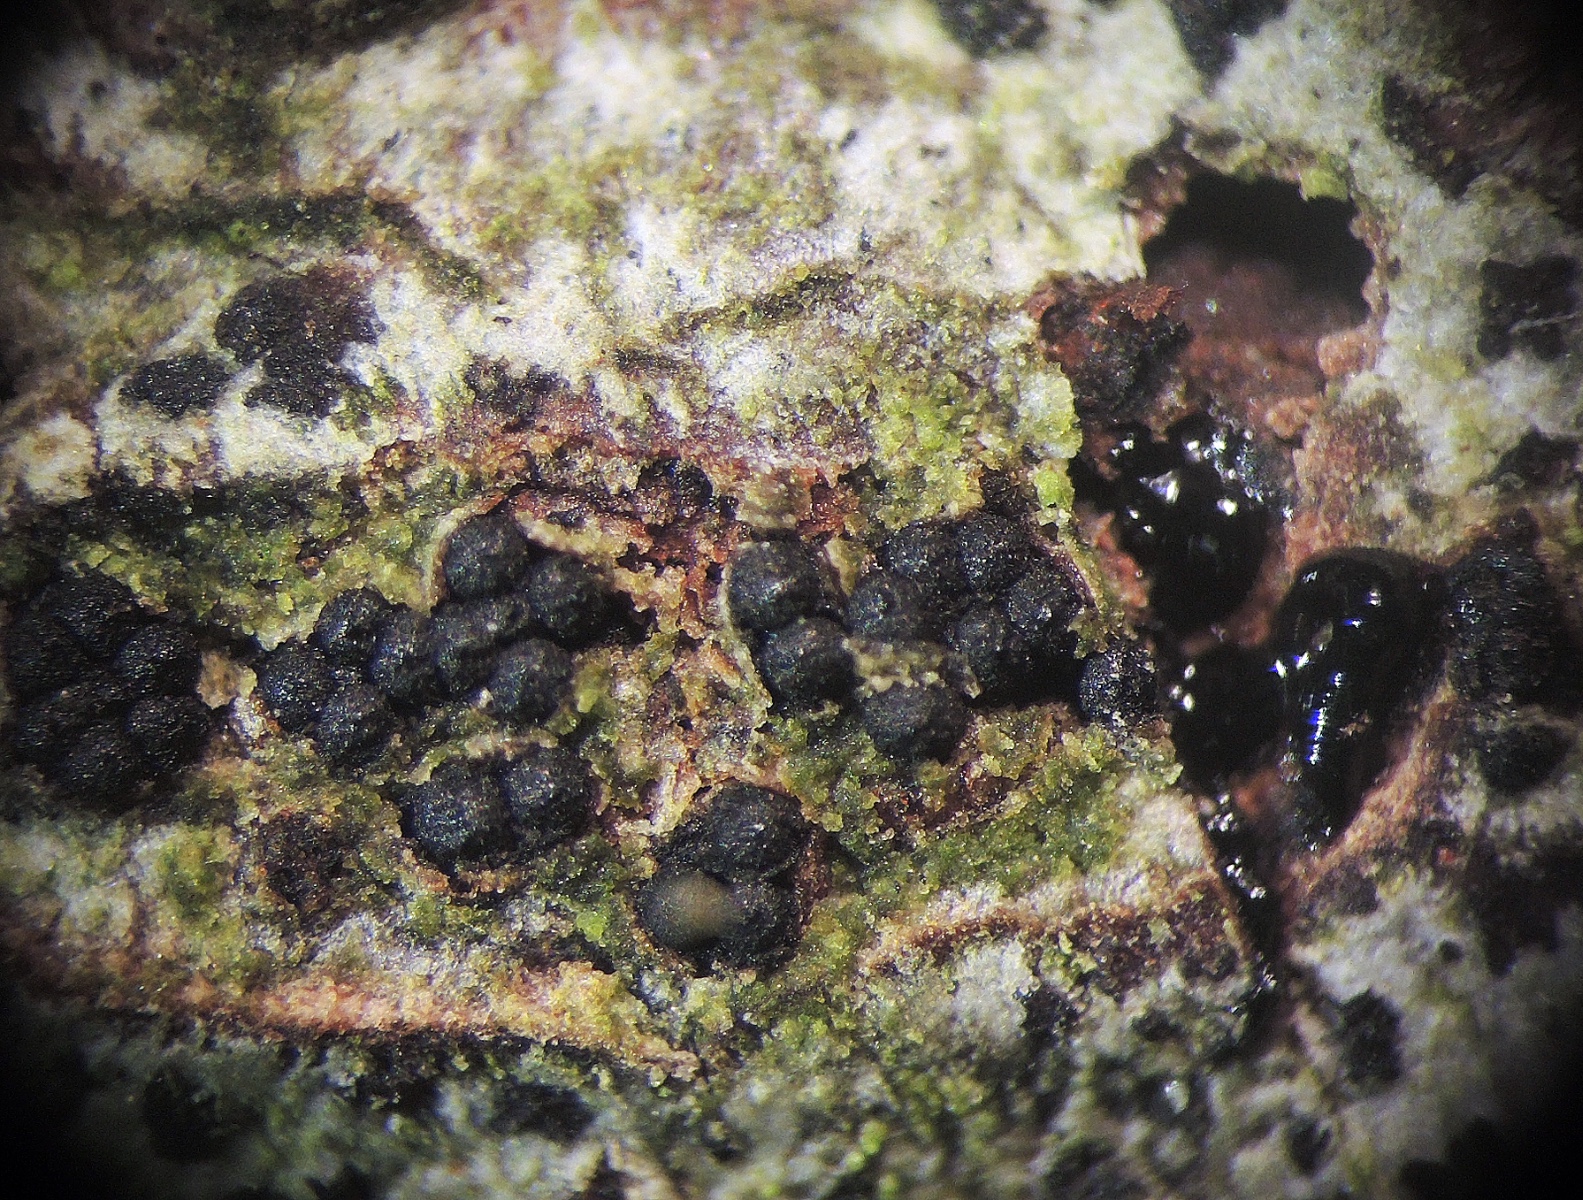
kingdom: Fungi
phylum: Ascomycota
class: Sordariomycetes
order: Xylariales
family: Diatrypaceae
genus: Quaternaria
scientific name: Quaternaria dissepta
